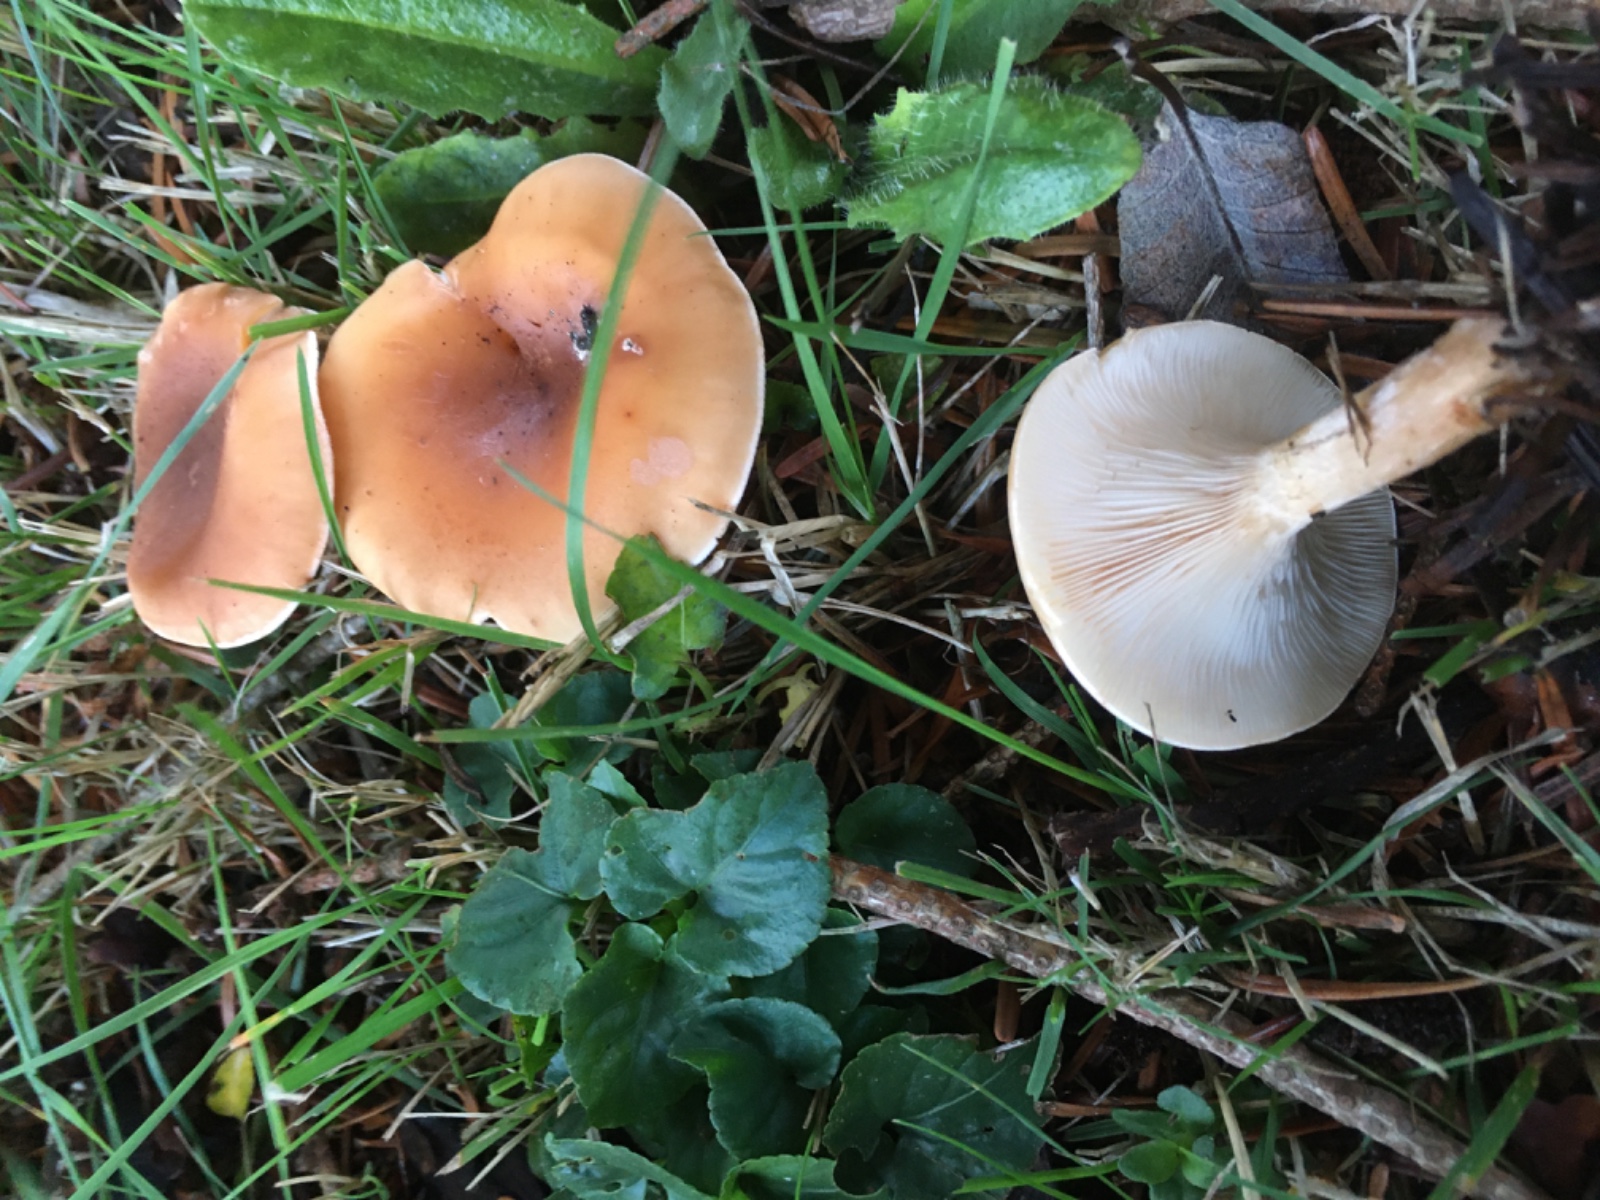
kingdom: Fungi
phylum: Basidiomycota
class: Agaricomycetes
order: Agaricales
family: Tricholomataceae
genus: Paralepista
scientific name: Paralepista flaccida
